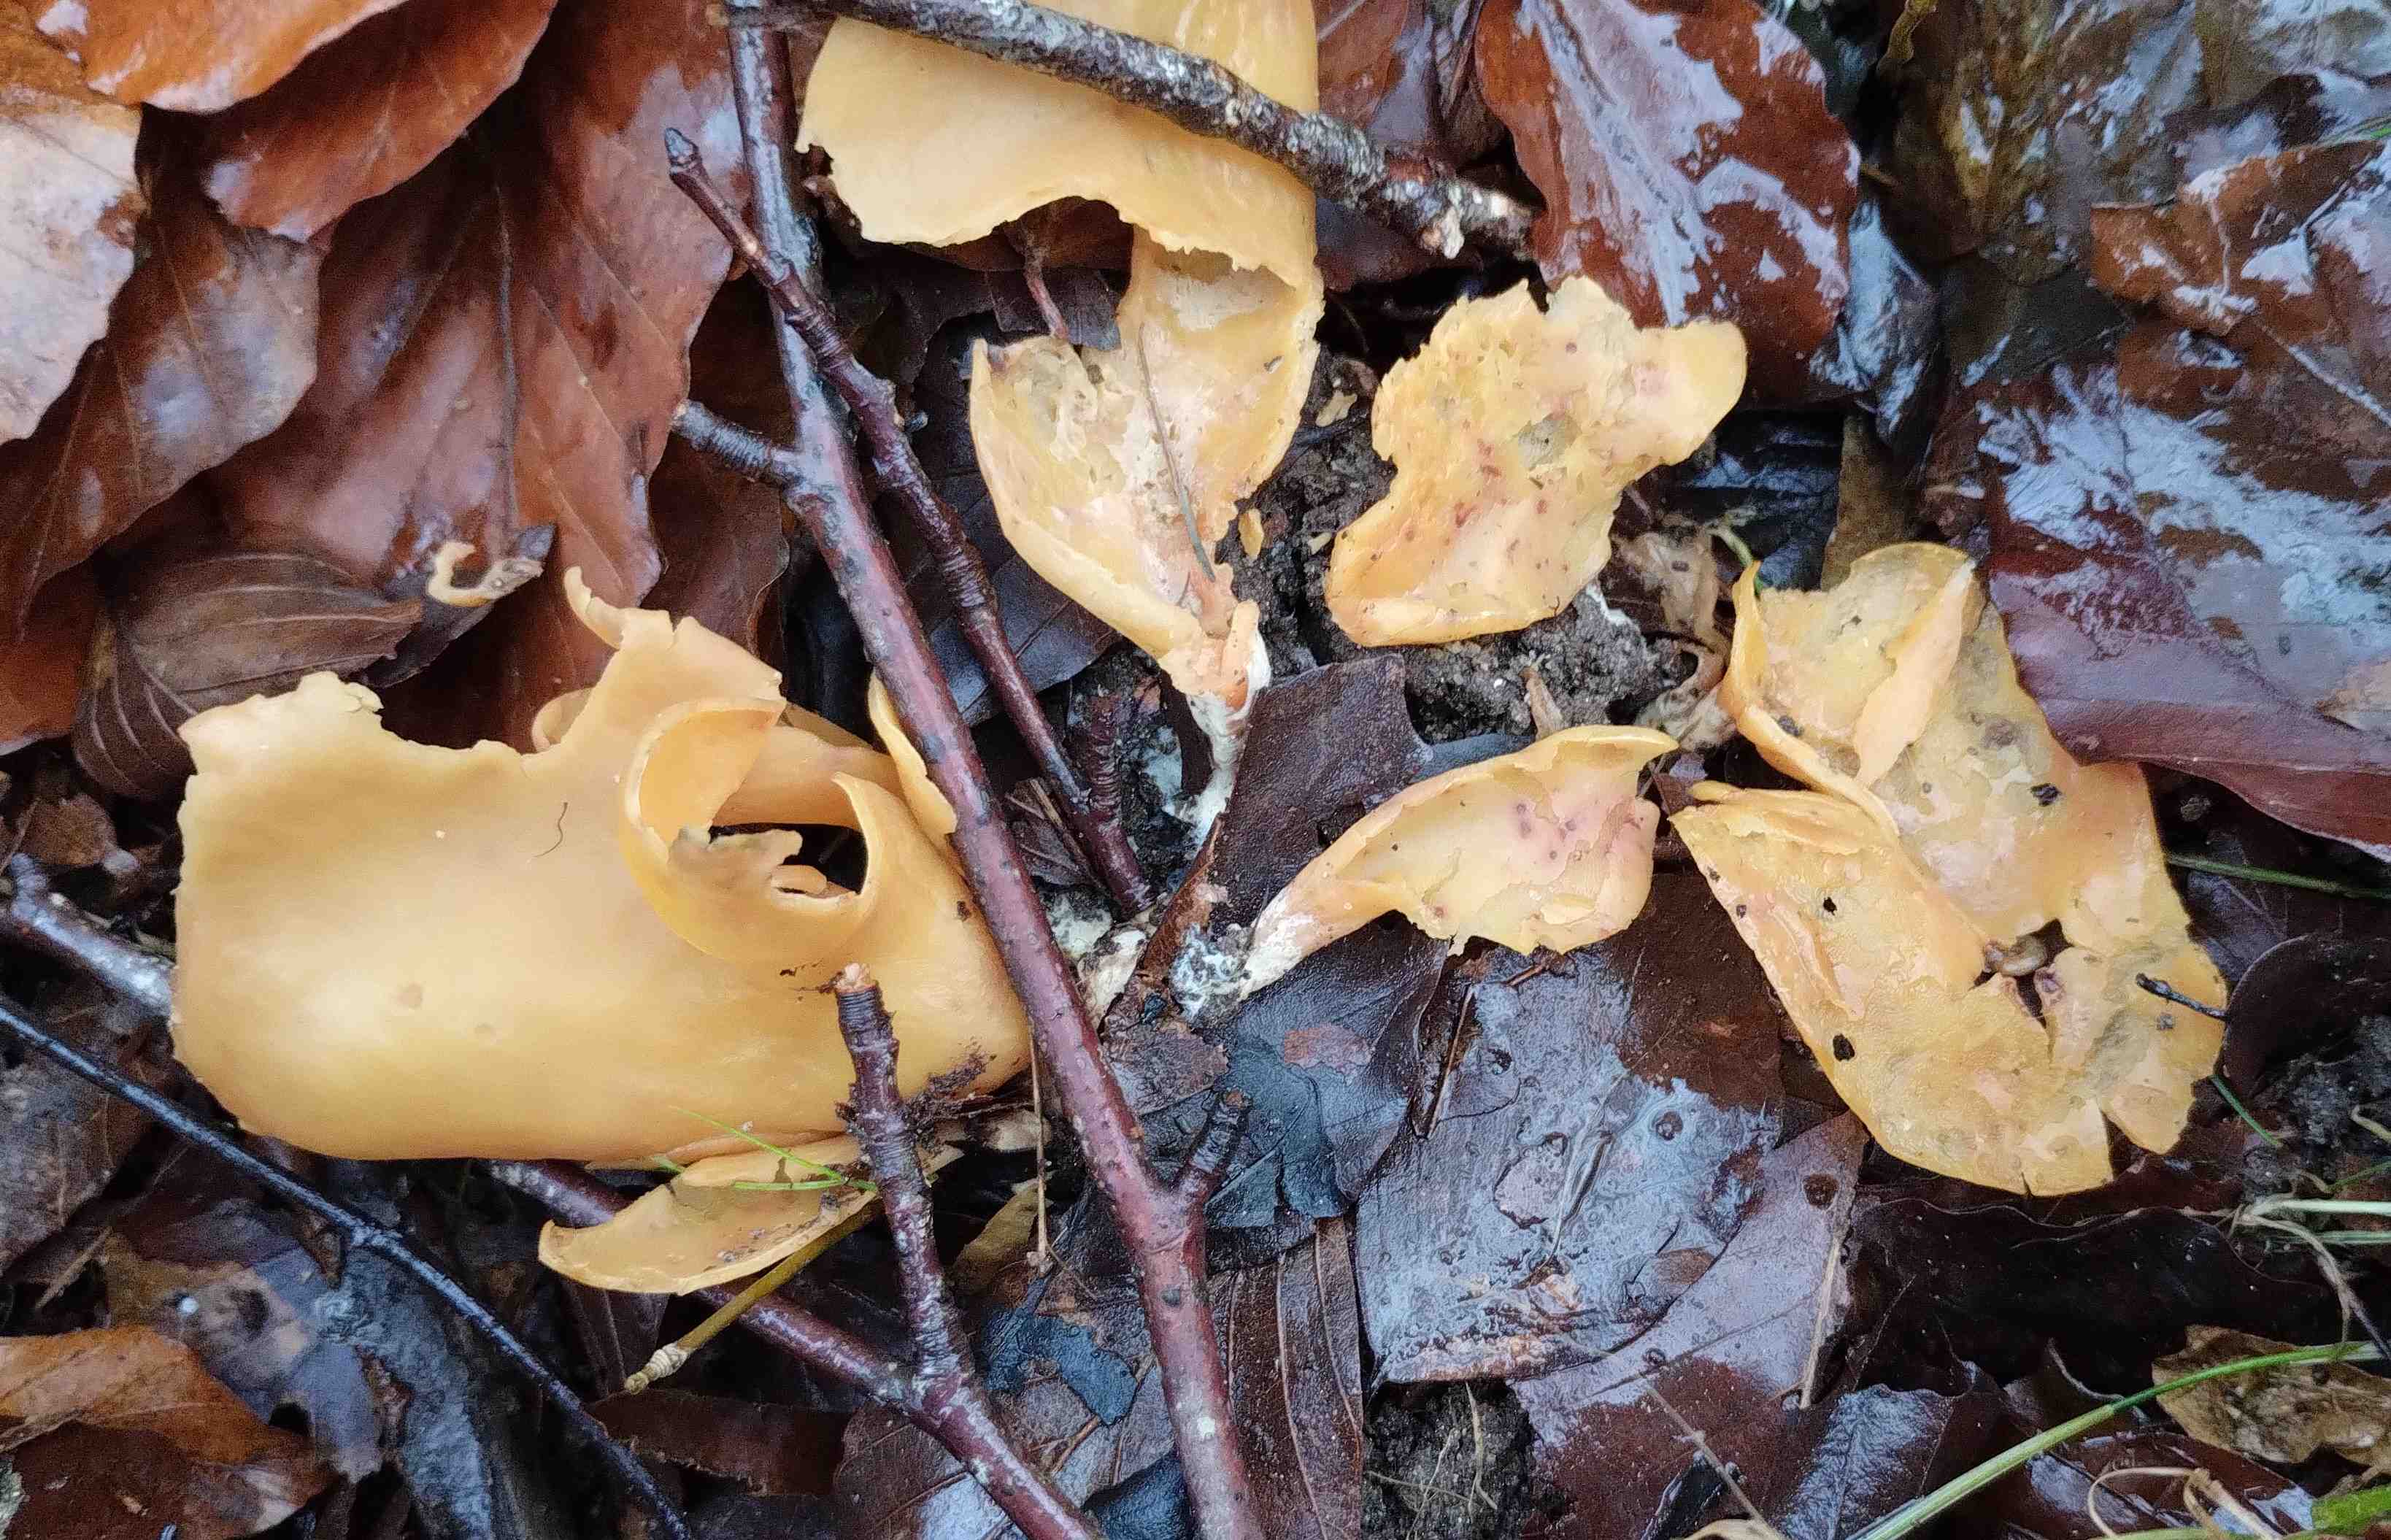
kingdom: Fungi
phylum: Ascomycota
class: Pezizomycetes
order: Pezizales
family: Otideaceae
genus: Otidea
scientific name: Otidea onotica
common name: æsel-ørebæger
